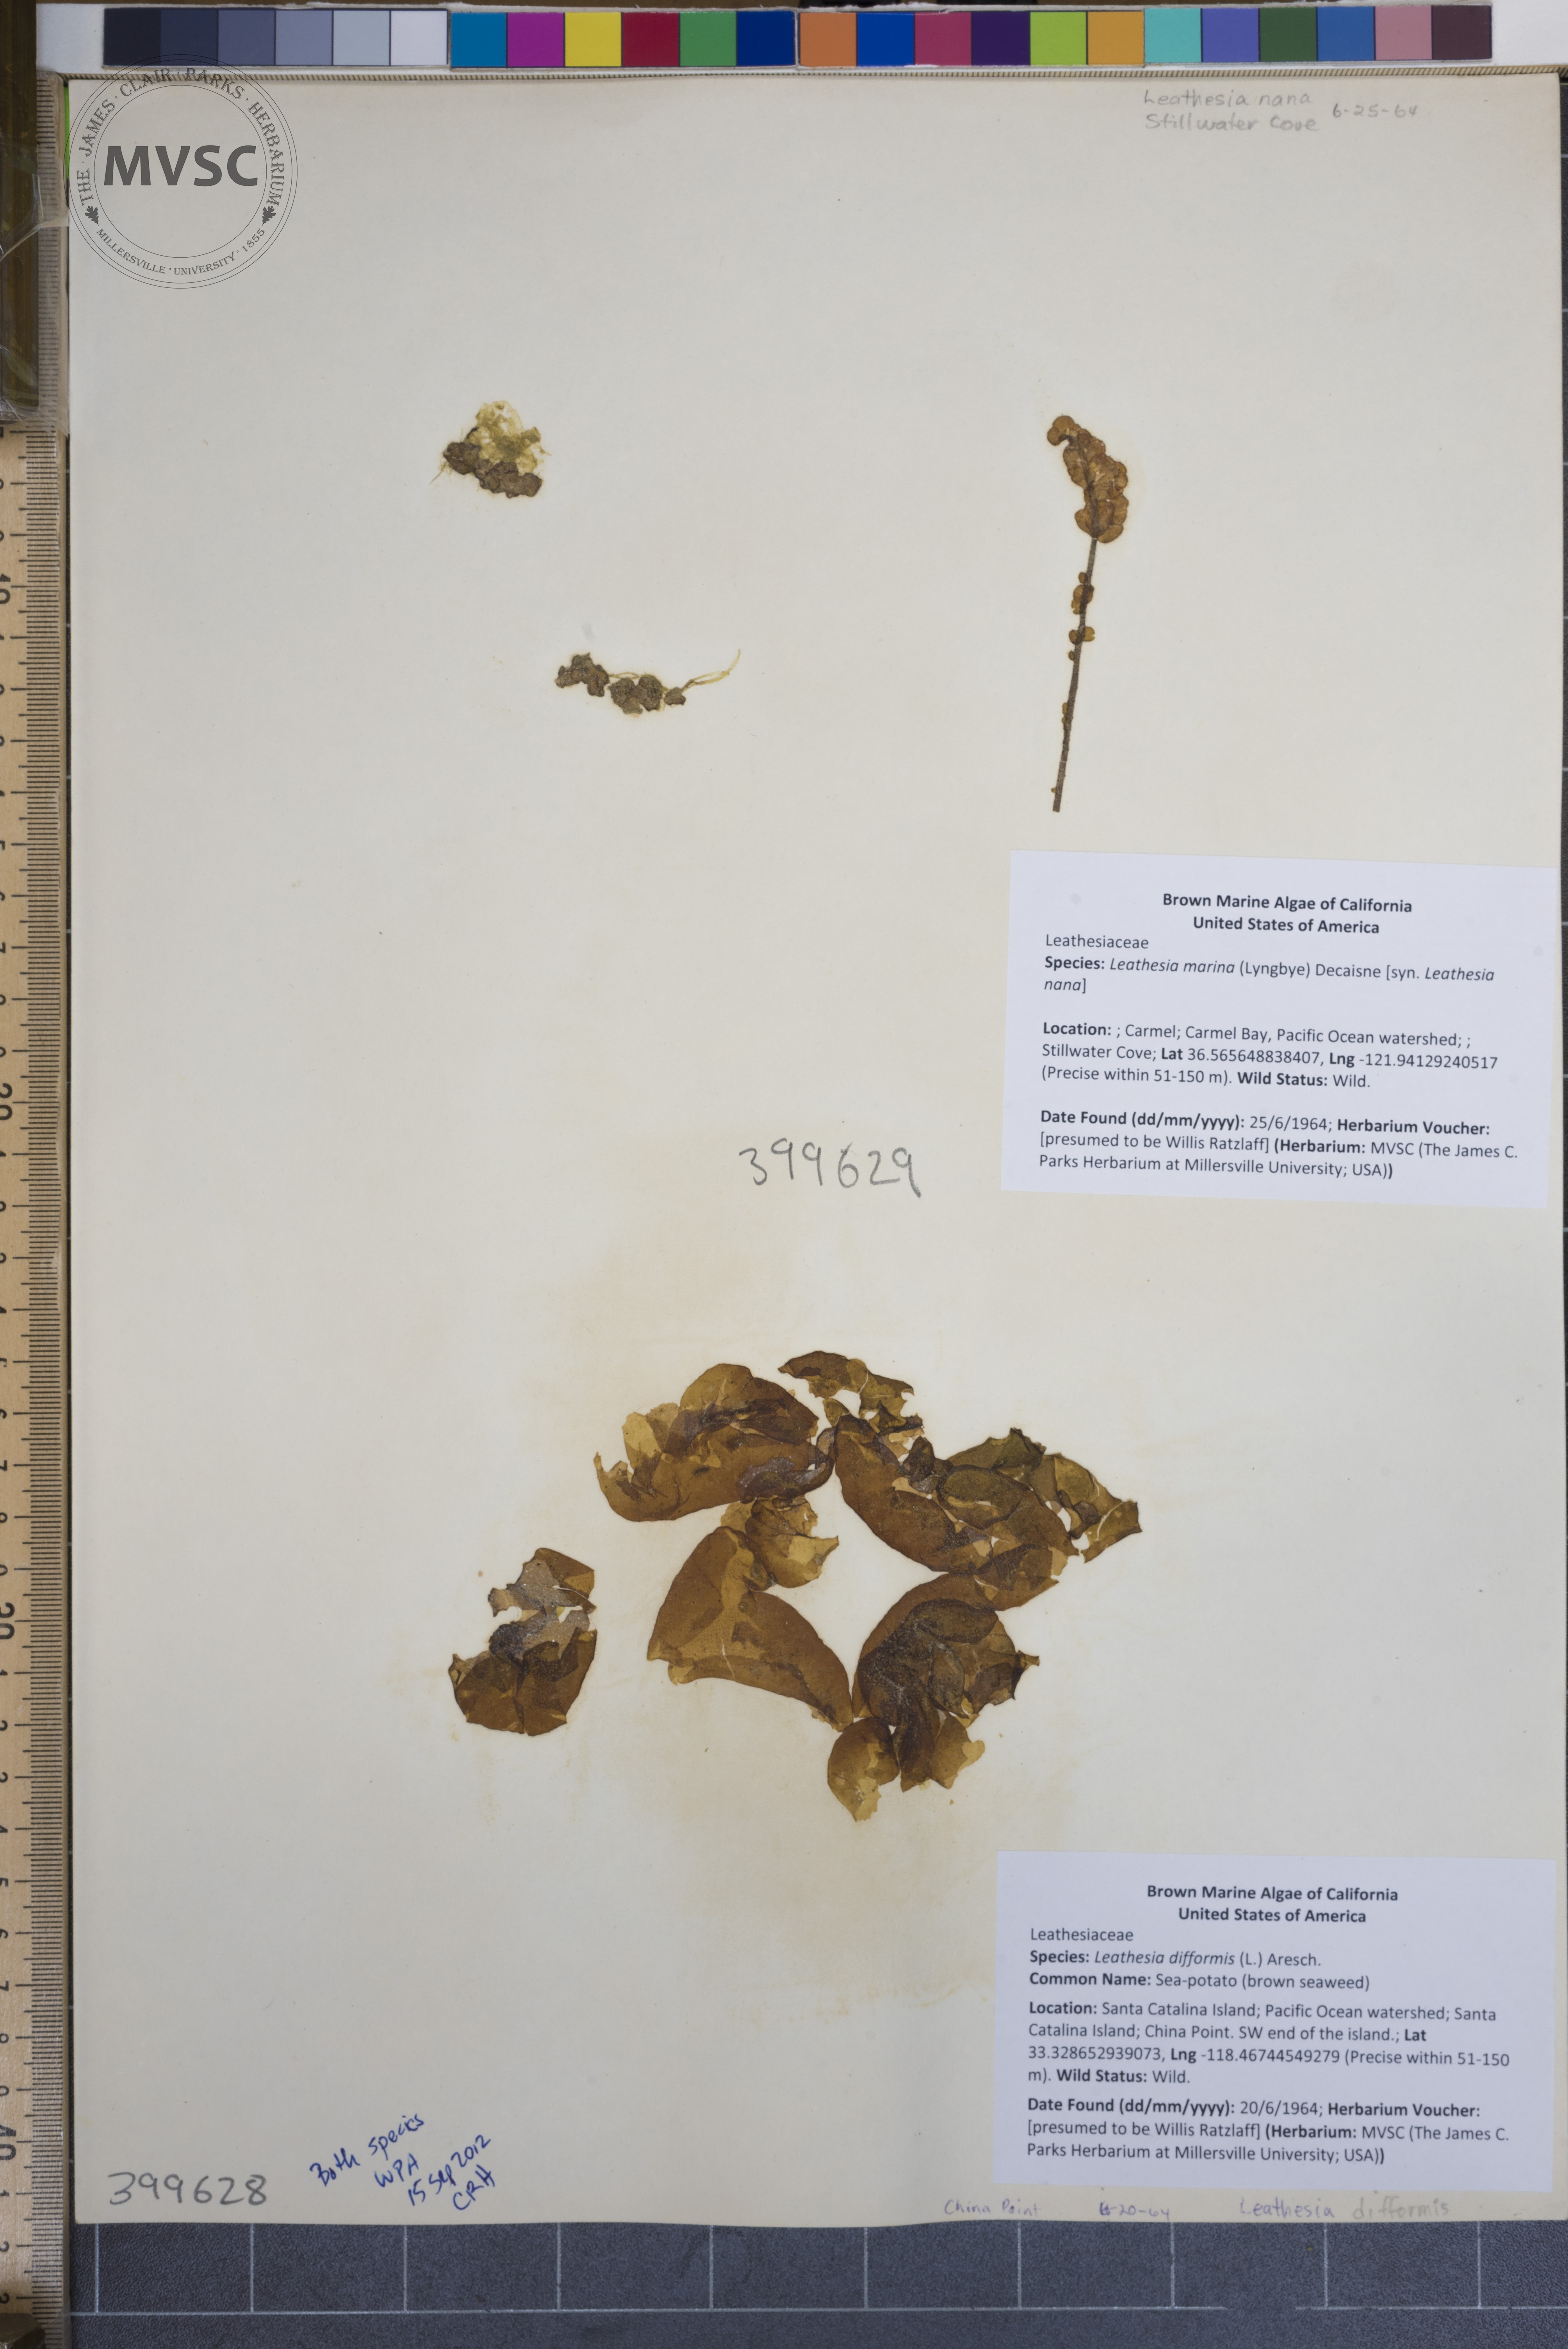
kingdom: Chromista
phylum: Ochrophyta
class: Phaeophyceae
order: Ectocarpales
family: Chordariaceae
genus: Leathesia
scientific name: Leathesia marina
